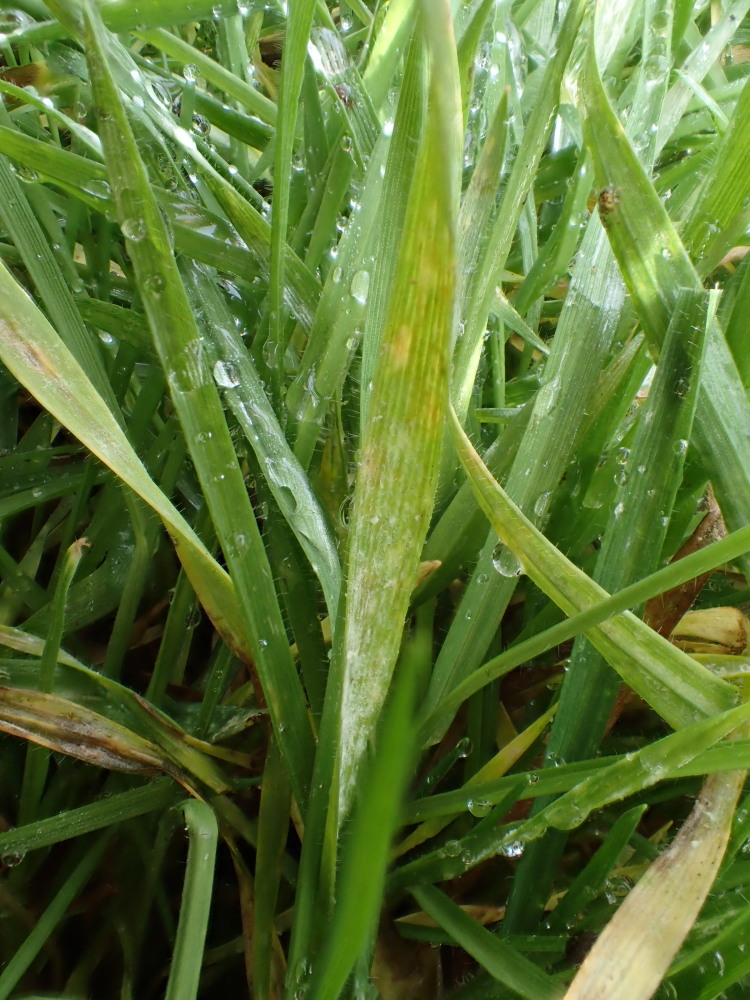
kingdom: Fungi
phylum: Ascomycota
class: Leotiomycetes
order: Helotiales
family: Erysiphaceae
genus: Blumeria
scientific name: Blumeria graminis
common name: græs-meldug
